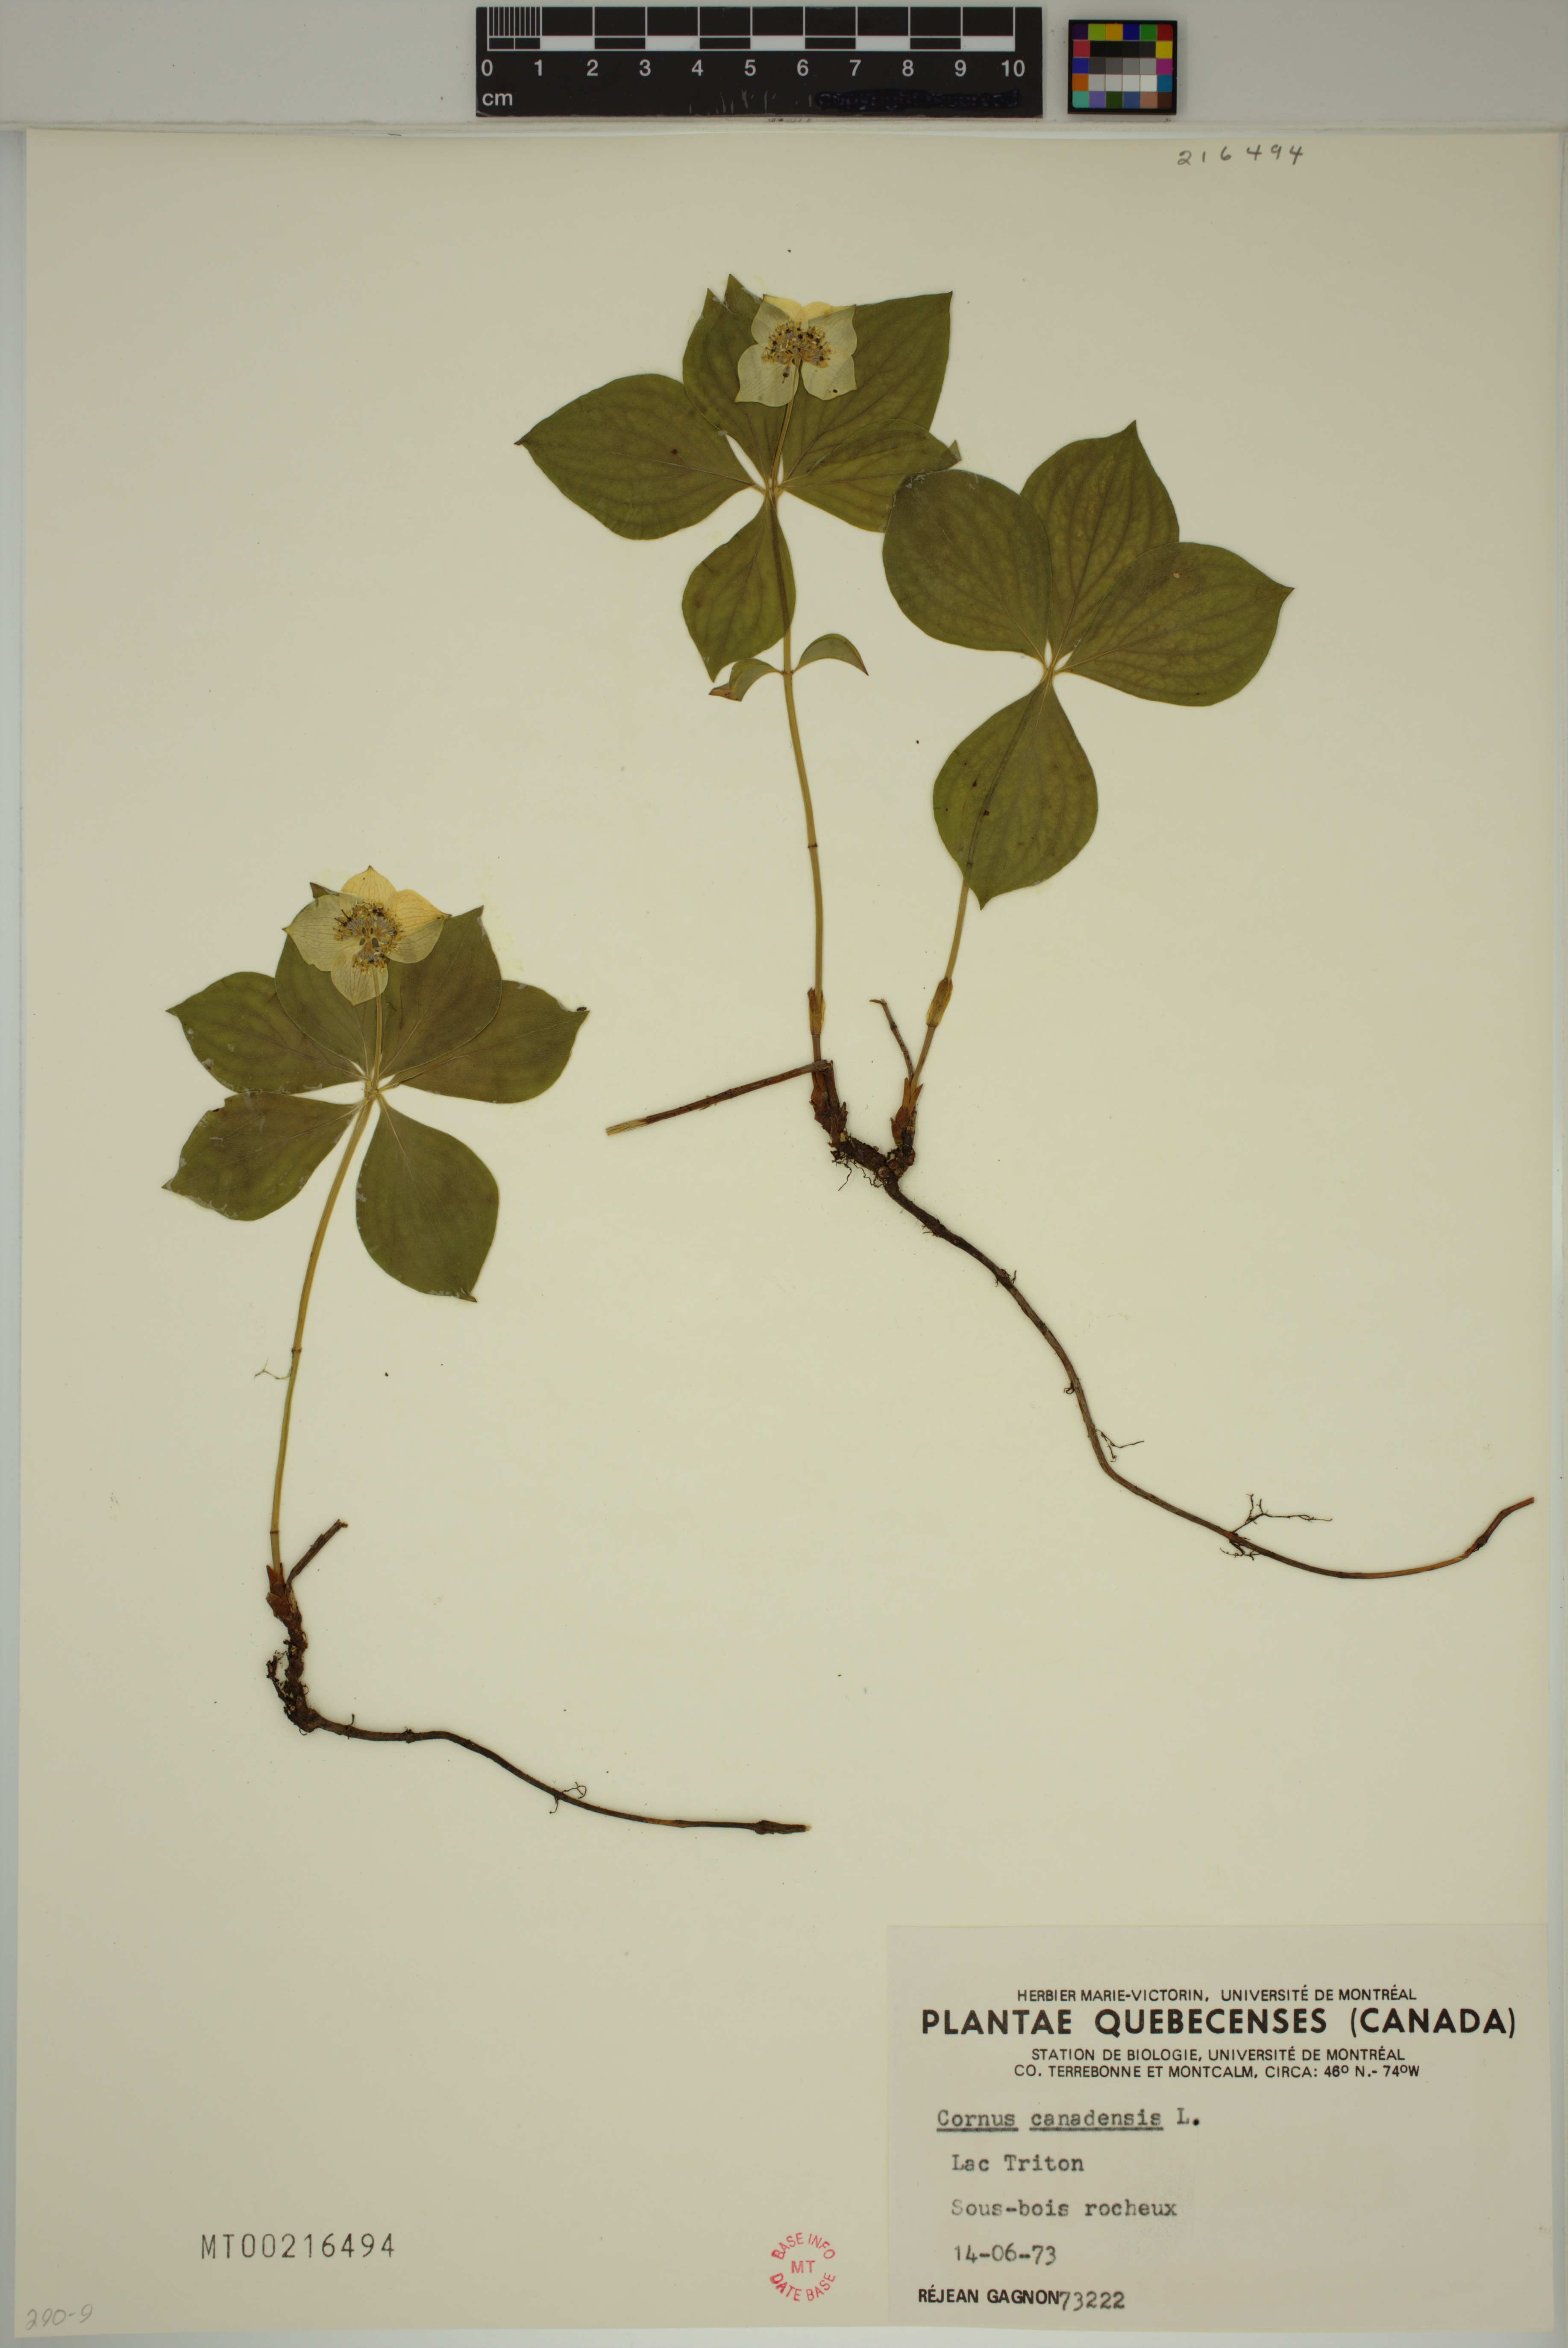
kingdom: Plantae
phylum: Tracheophyta
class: Magnoliopsida
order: Cornales
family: Cornaceae
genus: Cornus
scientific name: Cornus canadensis
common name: Creeping dogwood
